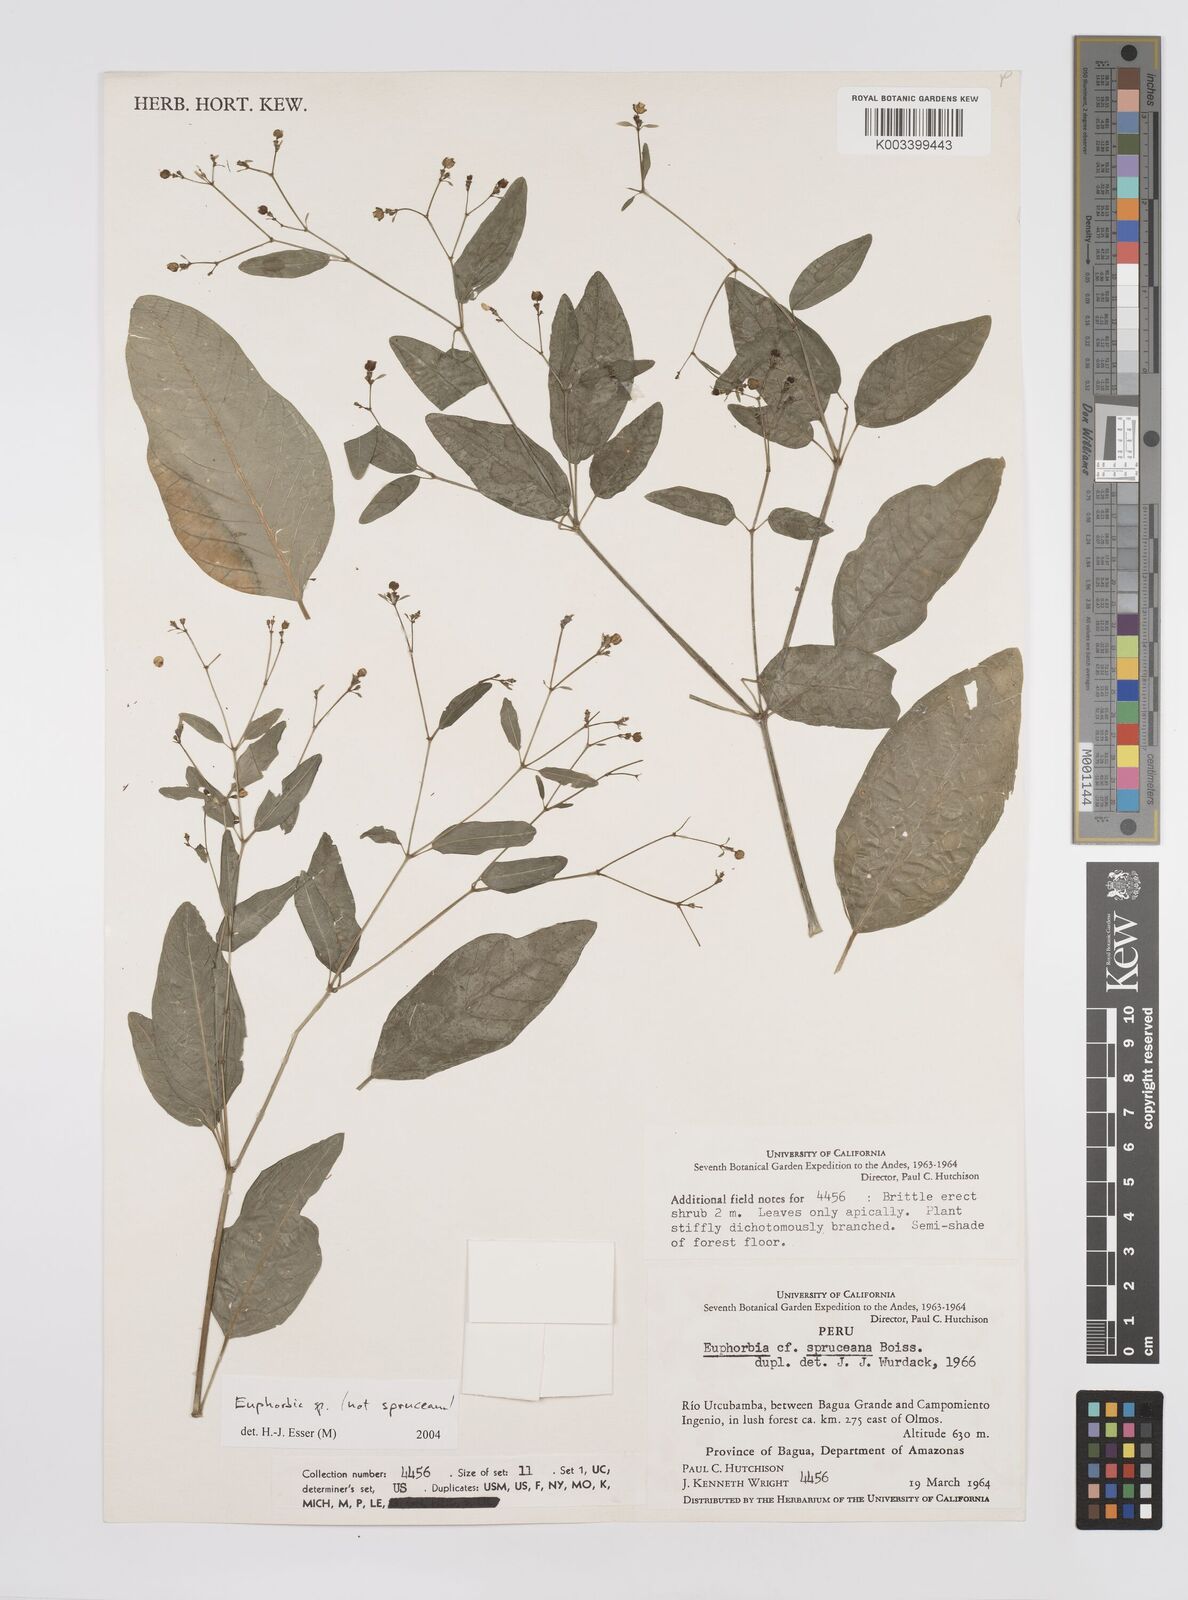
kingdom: Plantae
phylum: Tracheophyta
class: Magnoliopsida
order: Malpighiales
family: Euphorbiaceae
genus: Euphorbia
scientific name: Euphorbia
